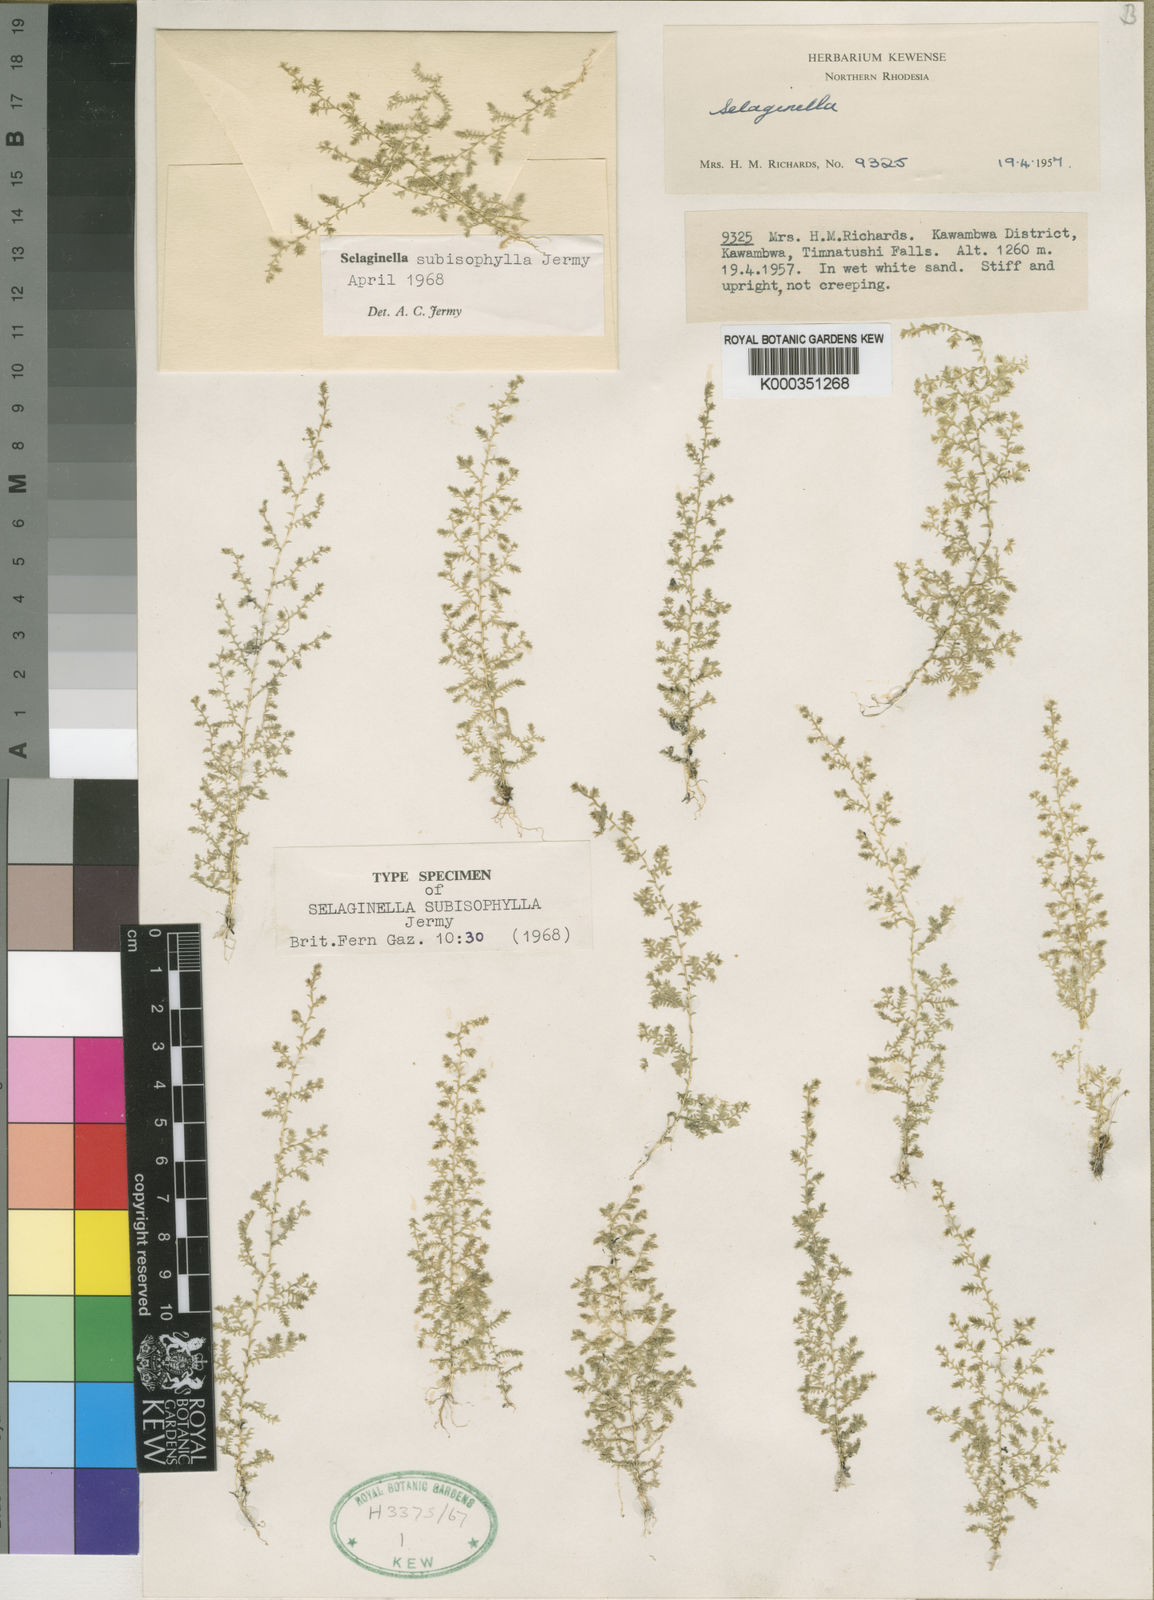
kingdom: Plantae
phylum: Tracheophyta
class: Lycopodiopsida
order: Selaginellales
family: Selaginellaceae
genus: Selaginella
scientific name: Selaginella subisophylla
